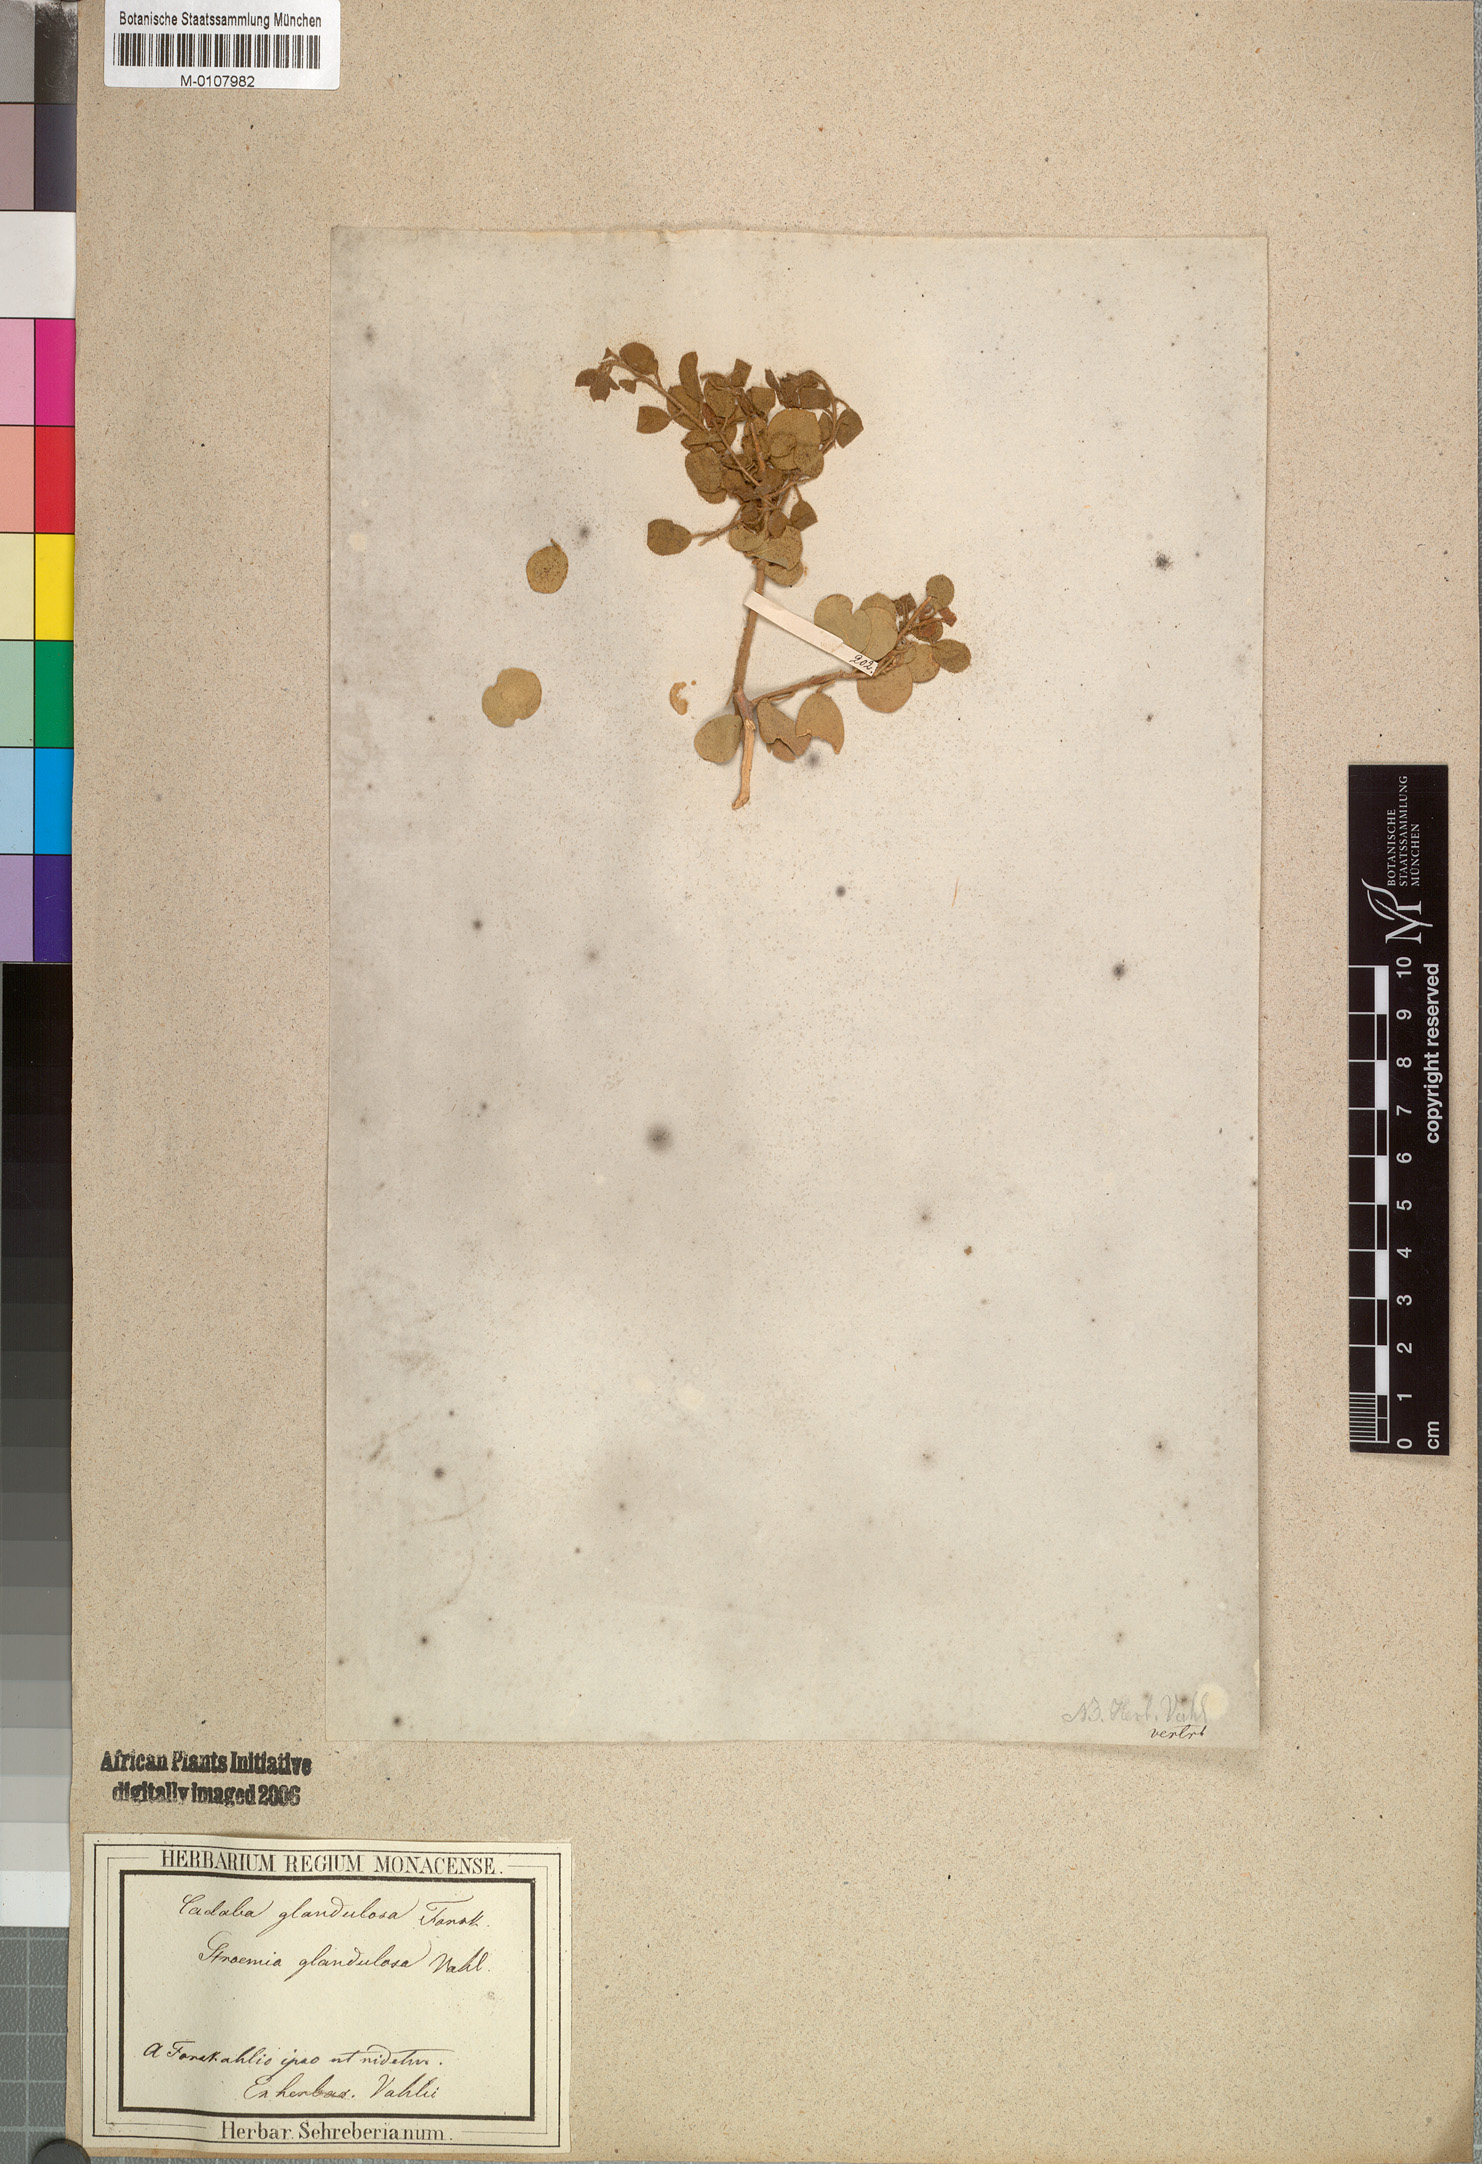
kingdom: Plantae
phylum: Tracheophyta
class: Magnoliopsida
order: Brassicales
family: Capparaceae
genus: Cadaba
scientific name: Cadaba glandulosa
